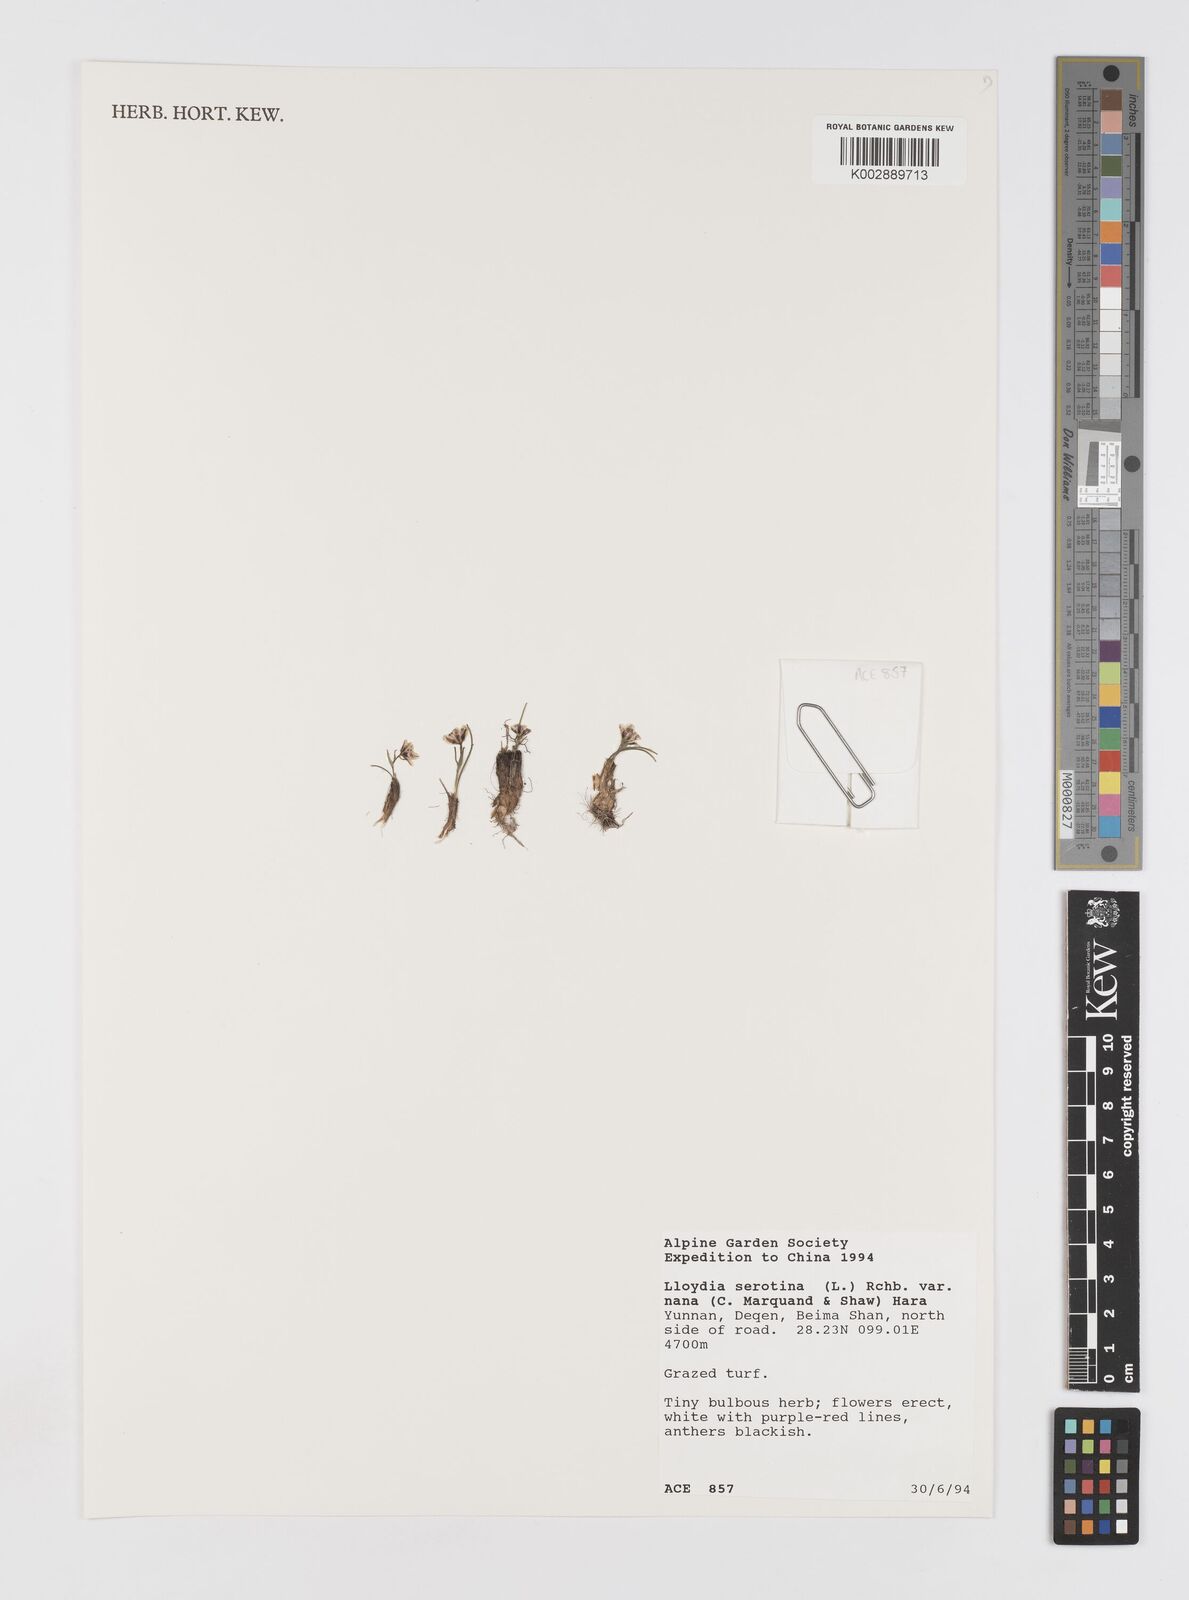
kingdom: Plantae
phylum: Tracheophyta
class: Liliopsida
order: Liliales
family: Liliaceae
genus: Gagea
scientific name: Gagea serotina
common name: Snowdon lily
